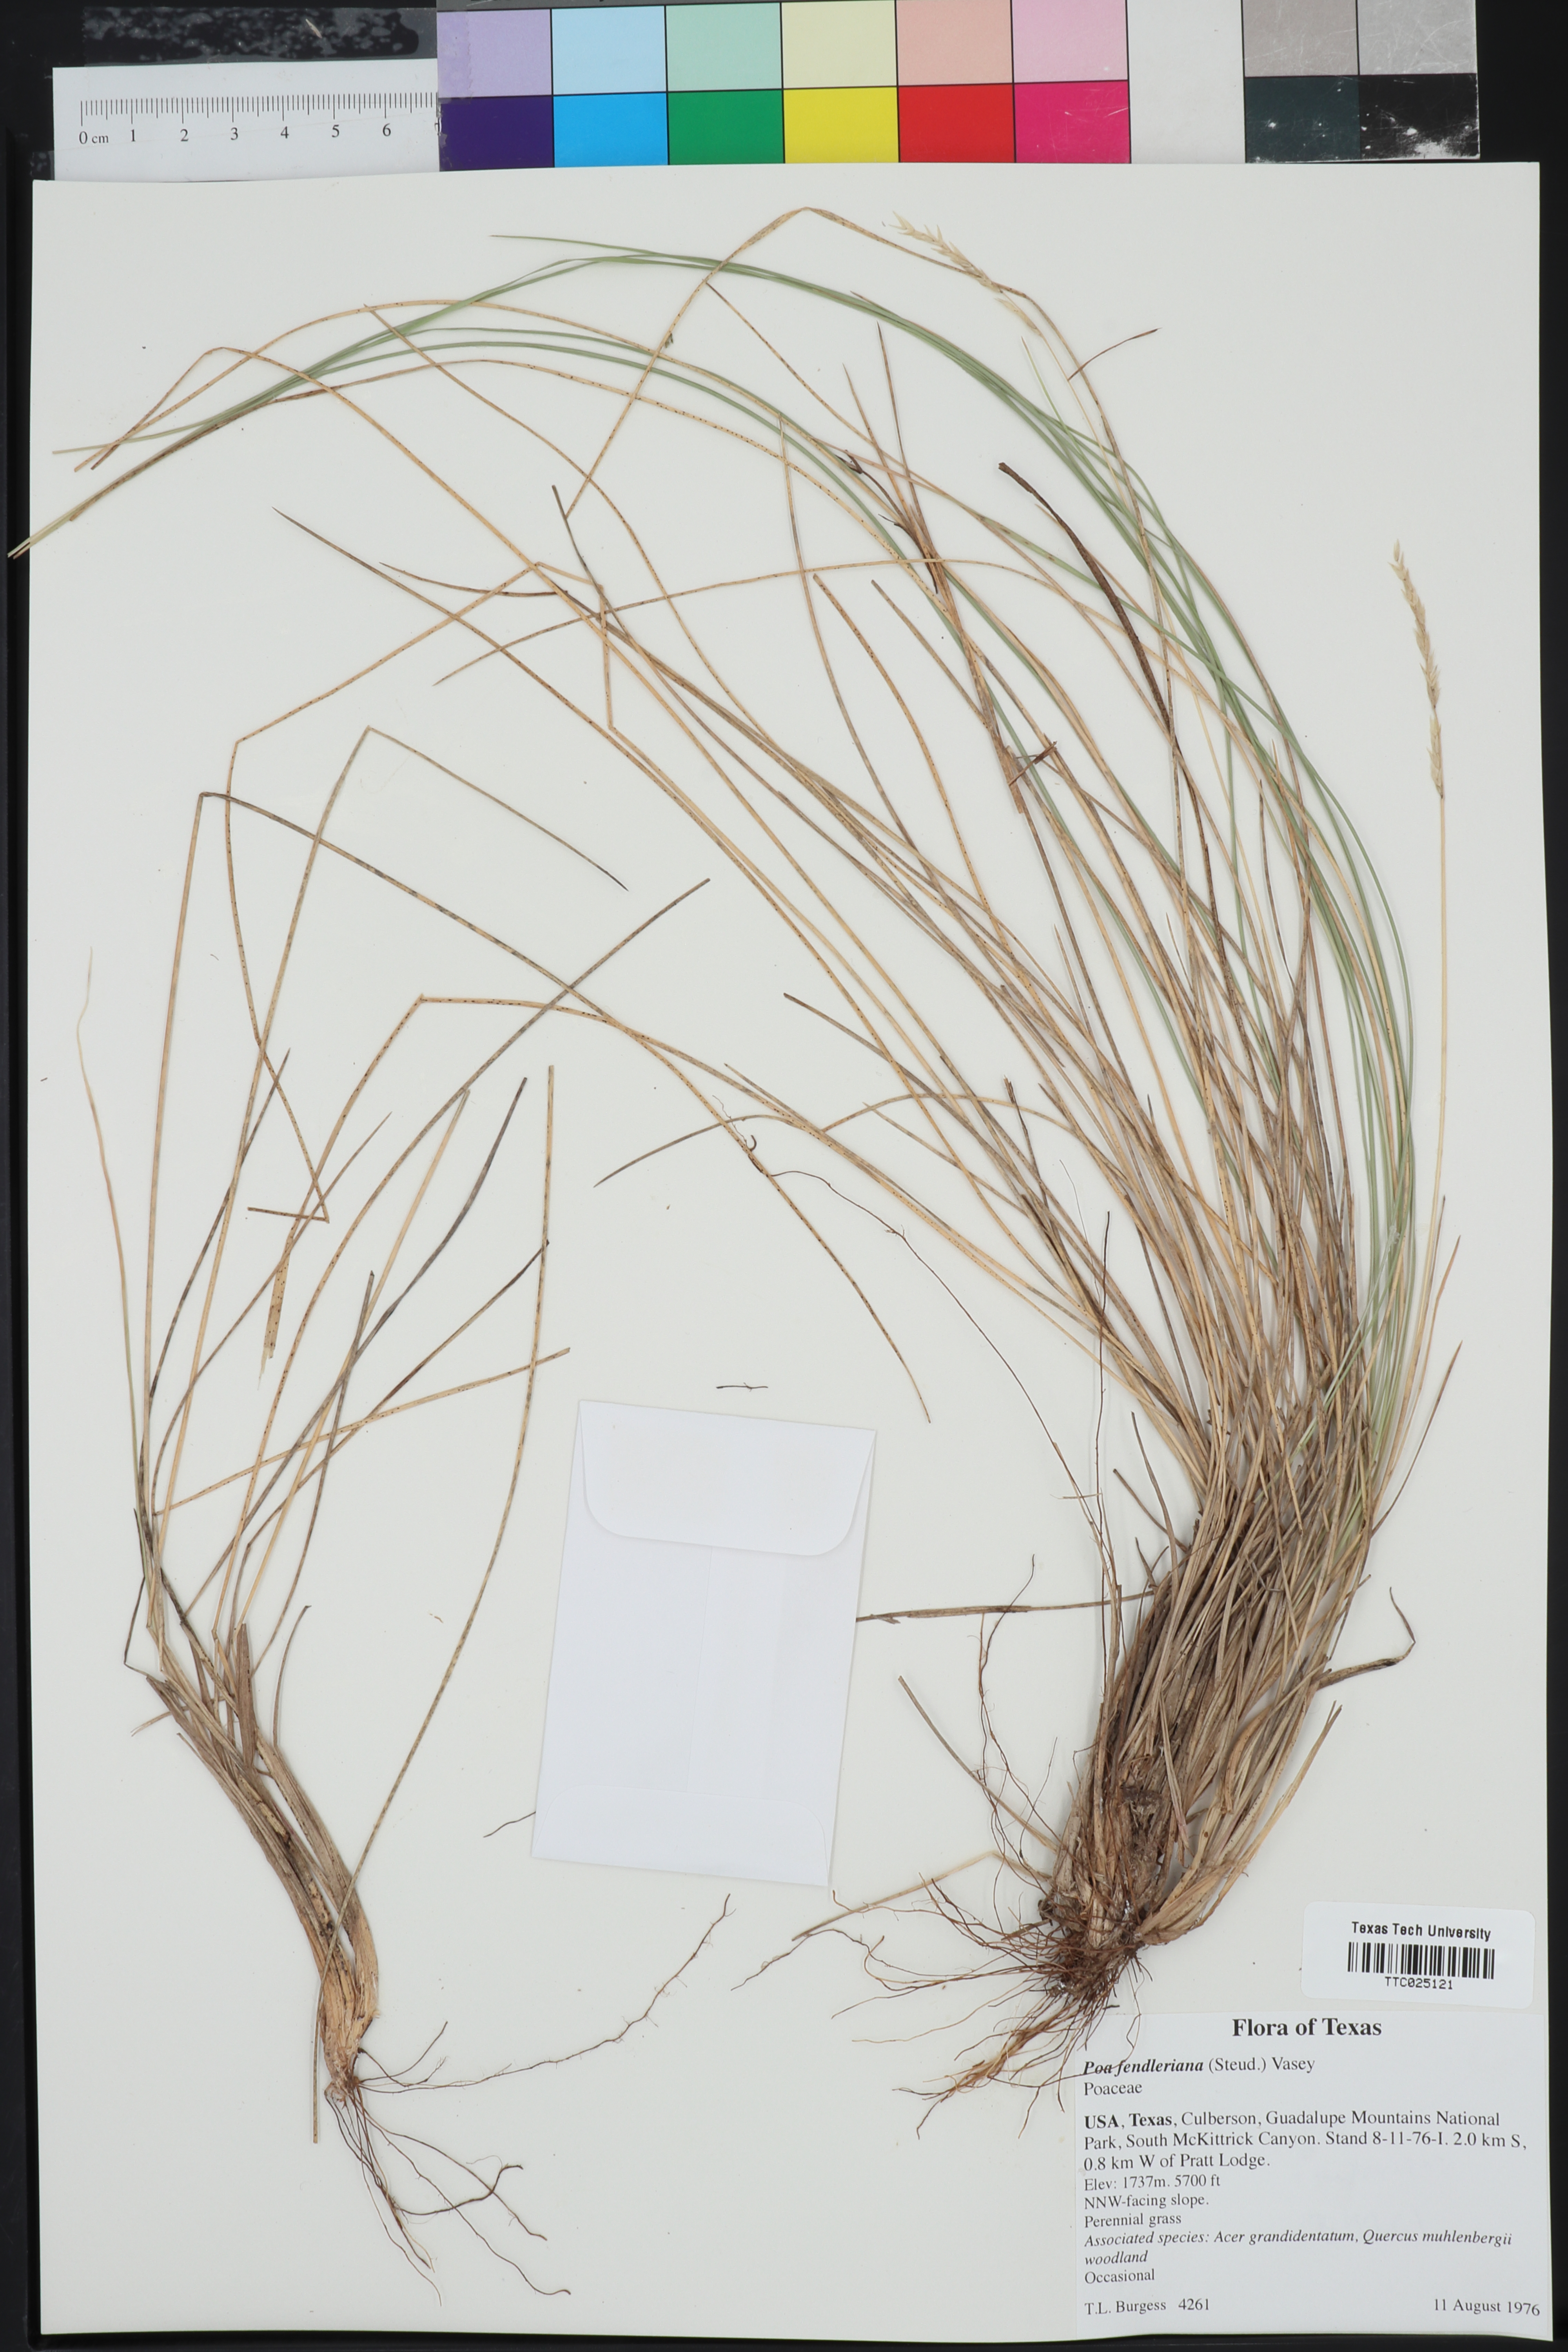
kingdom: Plantae
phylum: Tracheophyta
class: Liliopsida
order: Poales
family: Poaceae
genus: Poa
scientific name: Poa fendleriana
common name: Mutton bluegrass
